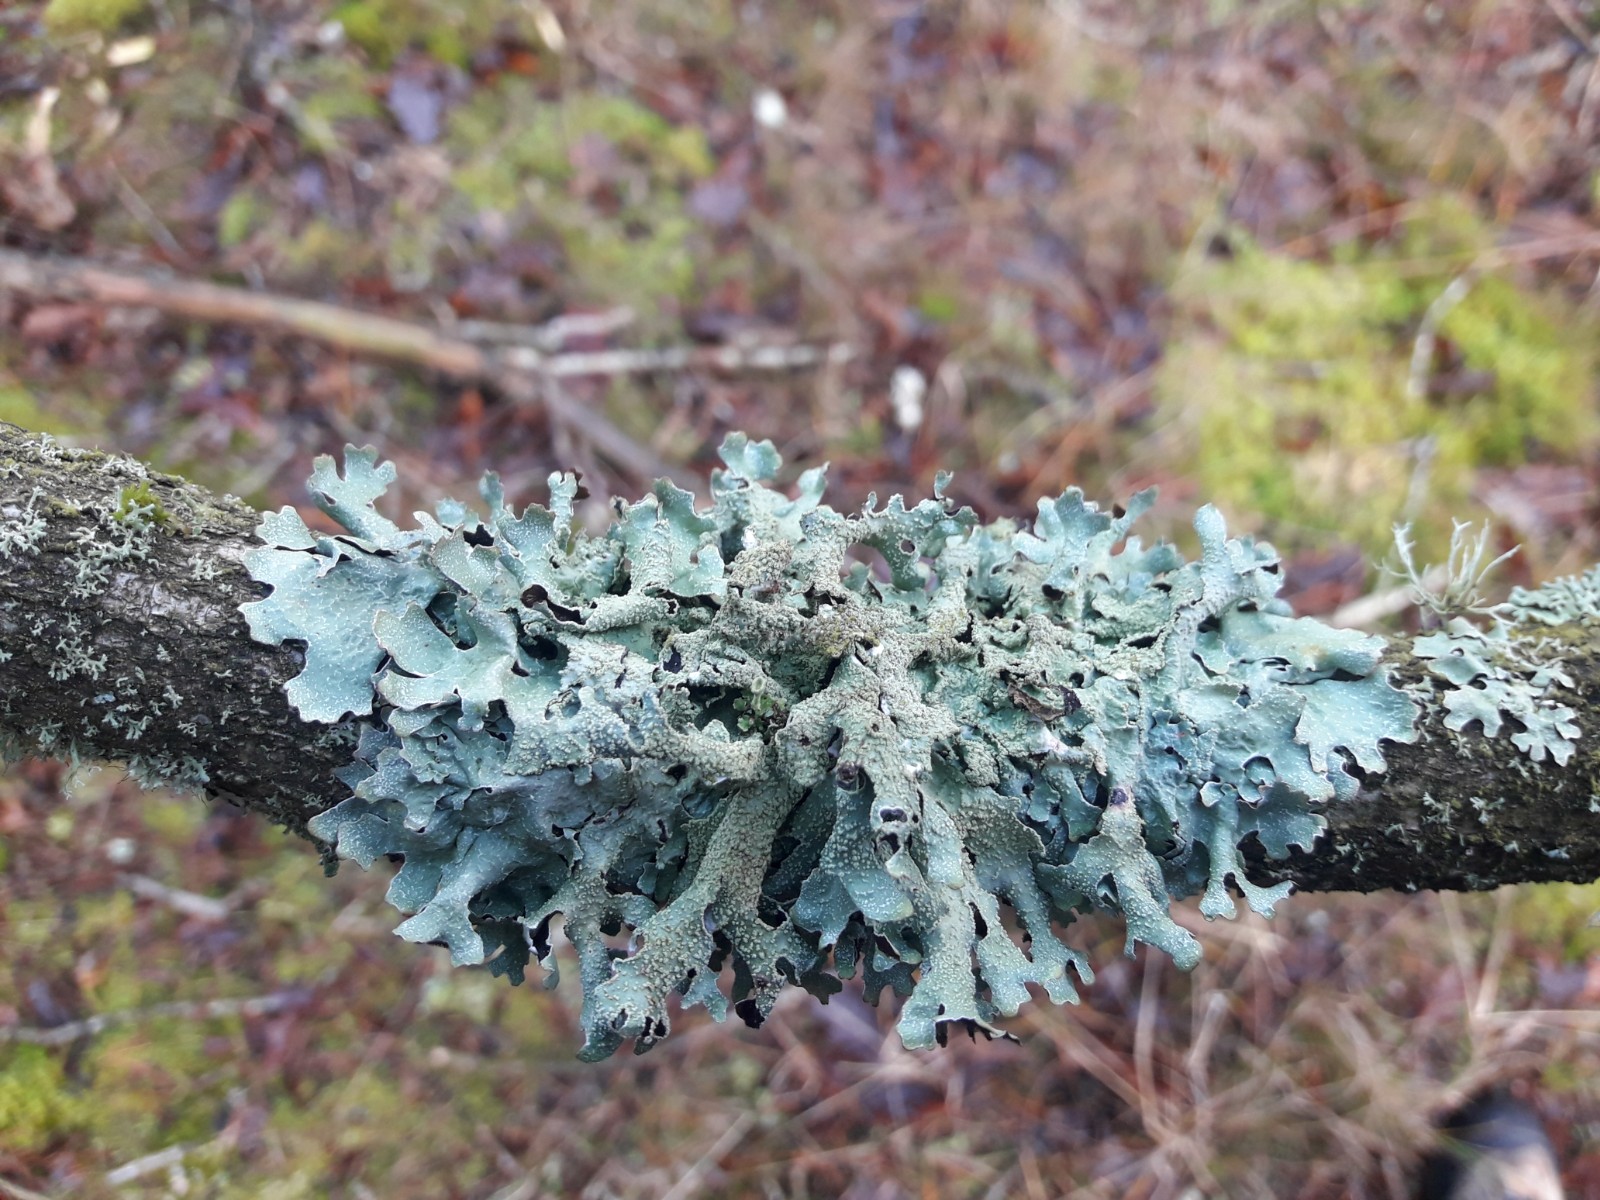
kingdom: Fungi
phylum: Ascomycota
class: Lecanoromycetes
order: Lecanorales
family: Parmeliaceae
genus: Parmelia
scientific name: Parmelia submontana
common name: langlobet skållav
